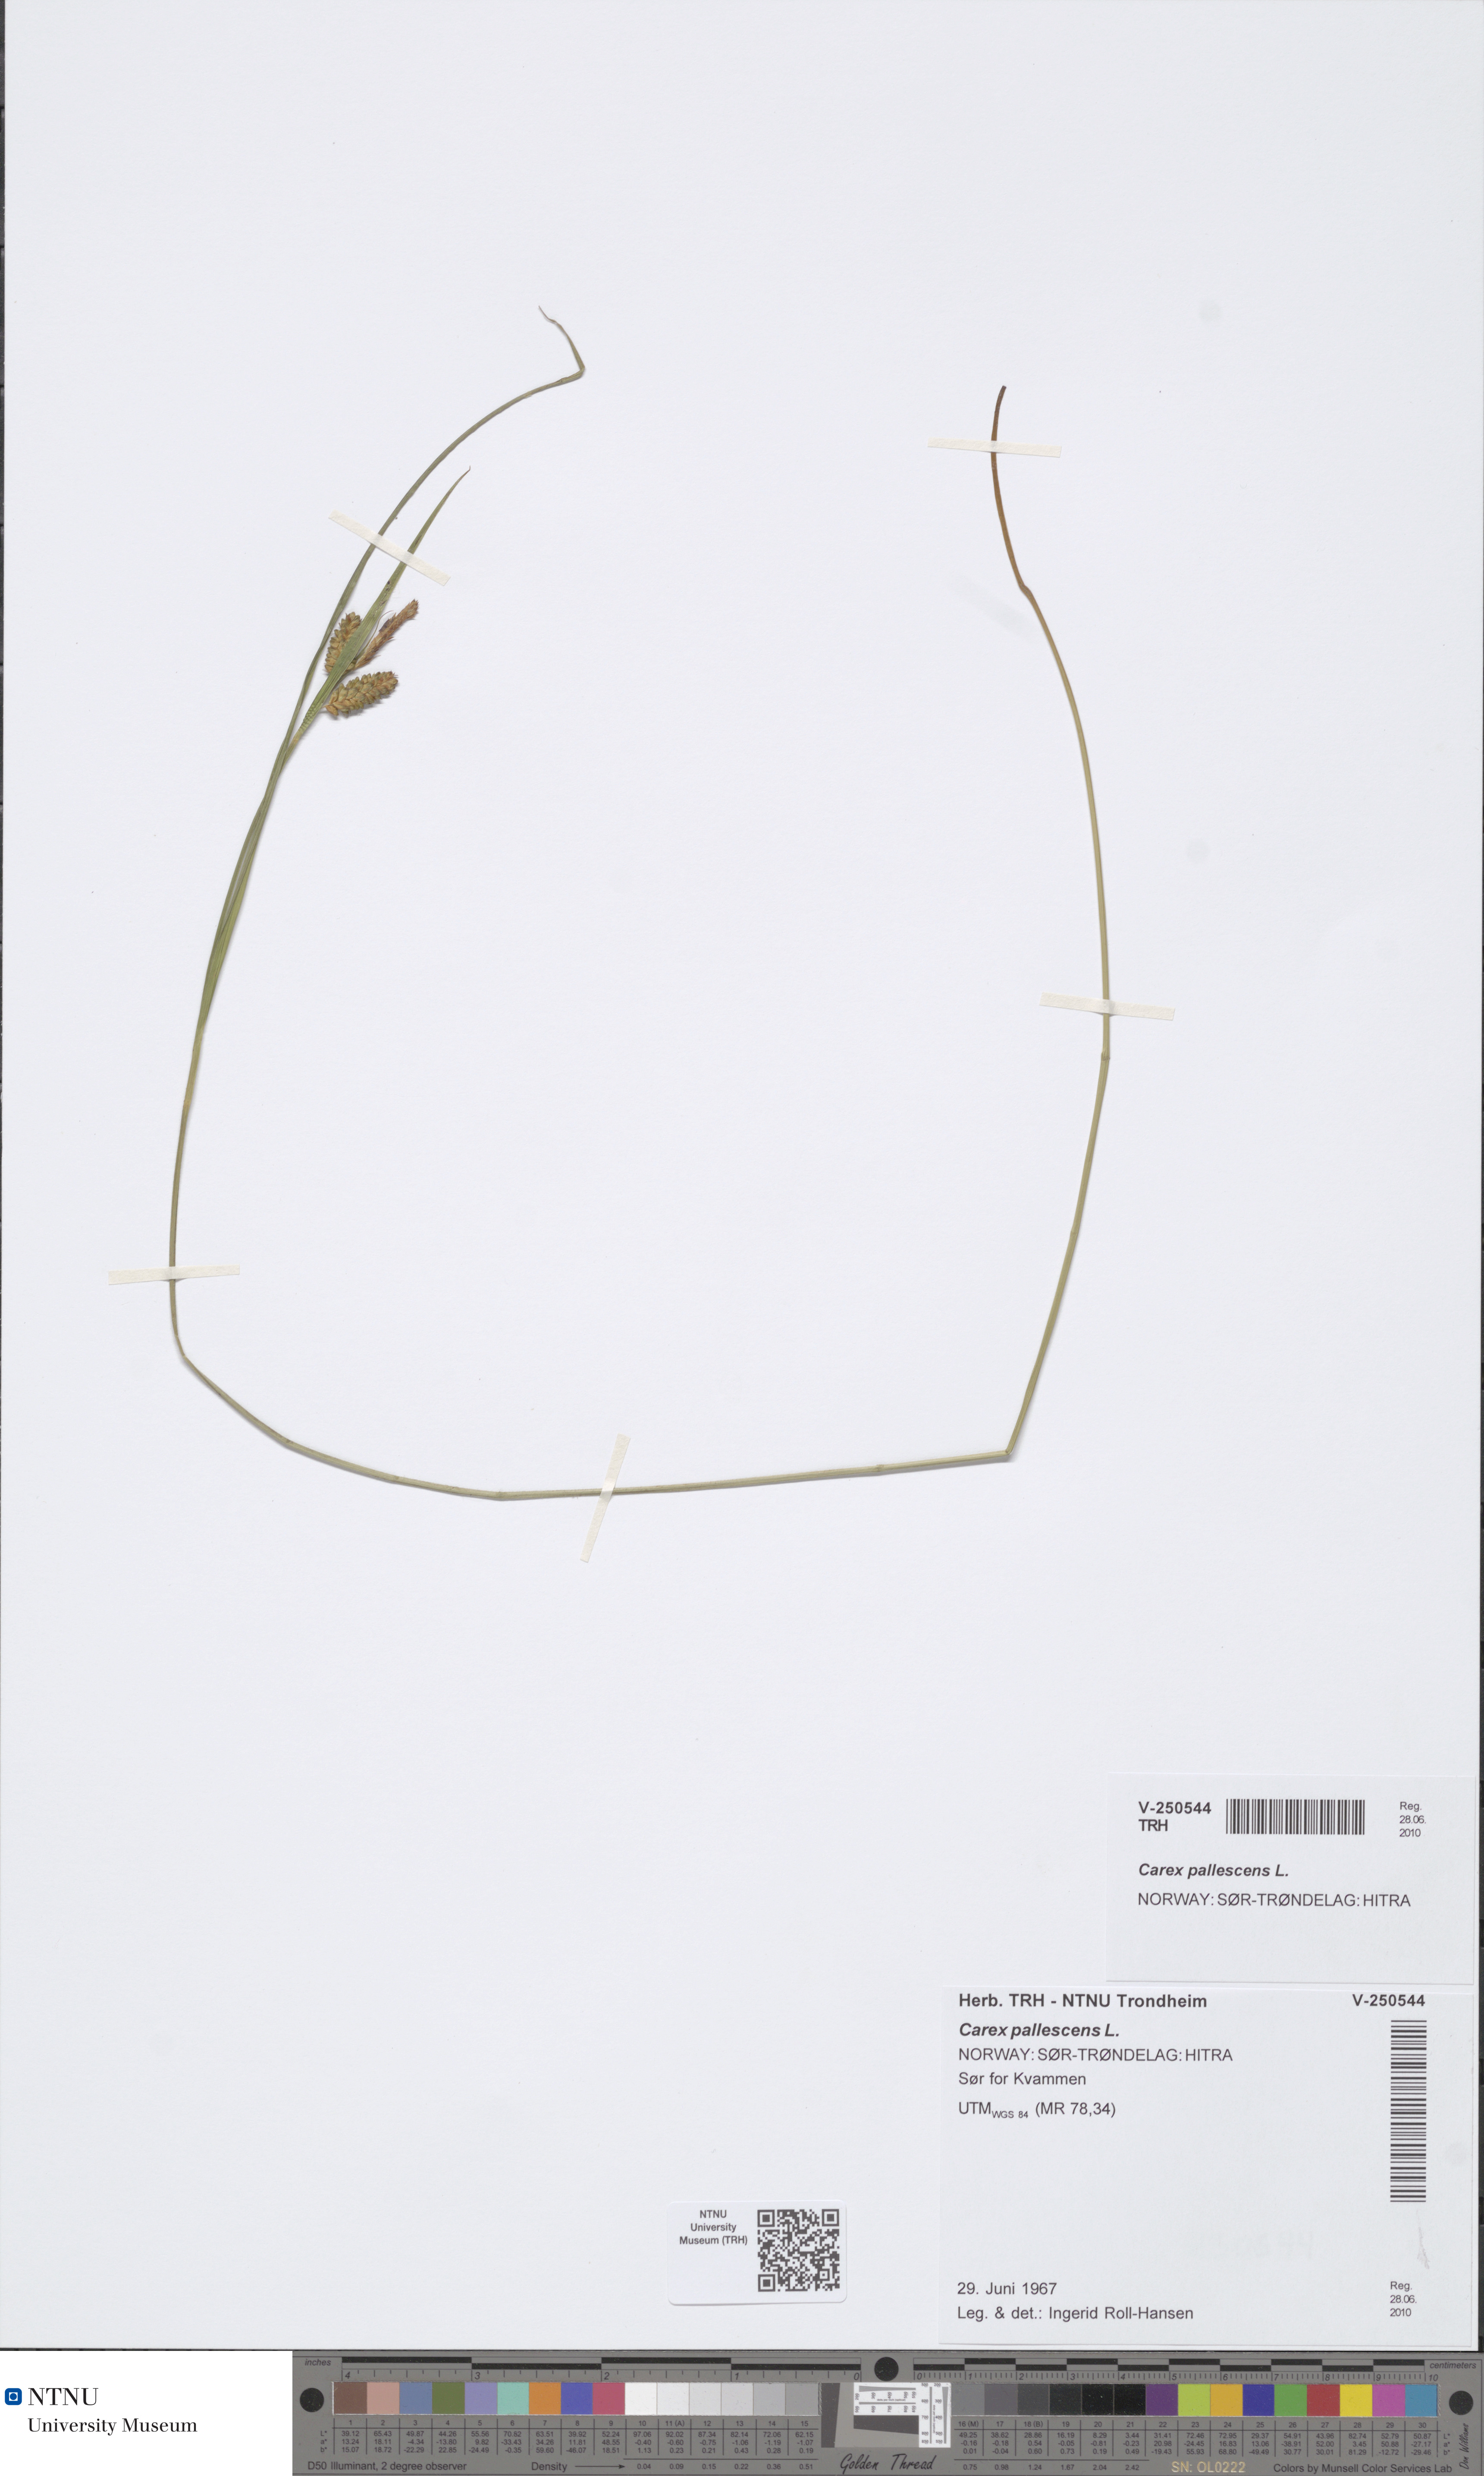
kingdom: Plantae
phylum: Tracheophyta
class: Liliopsida
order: Poales
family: Cyperaceae
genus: Carex
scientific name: Carex pallescens
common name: Pale sedge
